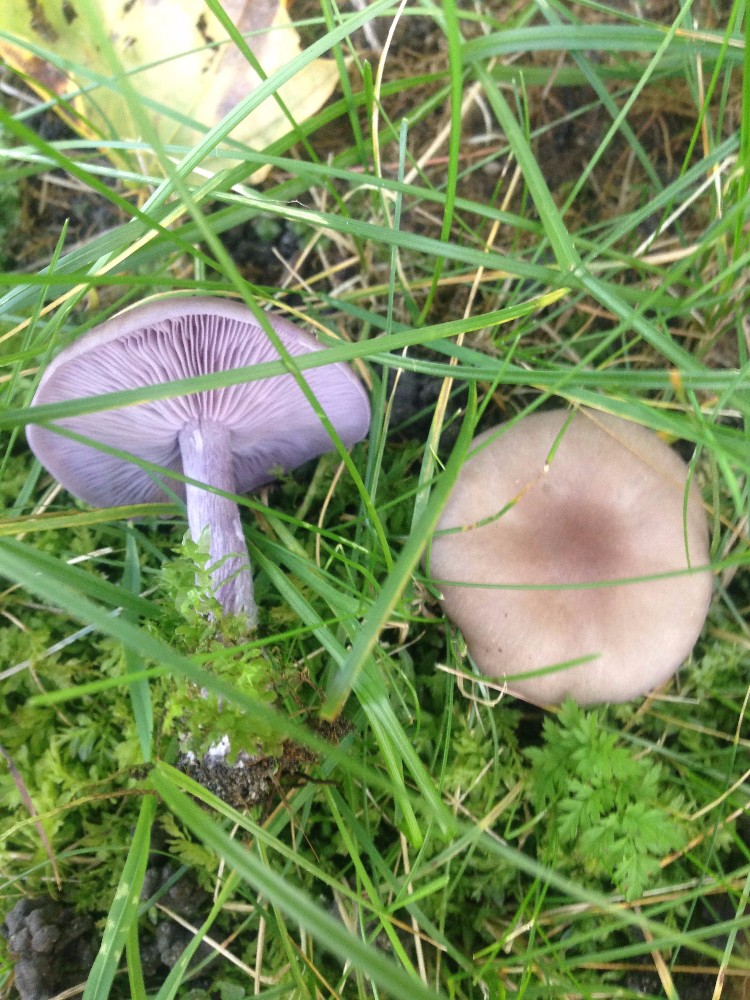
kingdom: Fungi
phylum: Basidiomycota
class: Agaricomycetes
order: Agaricales
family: Tricholomataceae
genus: Lepista
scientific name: Lepista nuda
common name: violet hekseringshat
